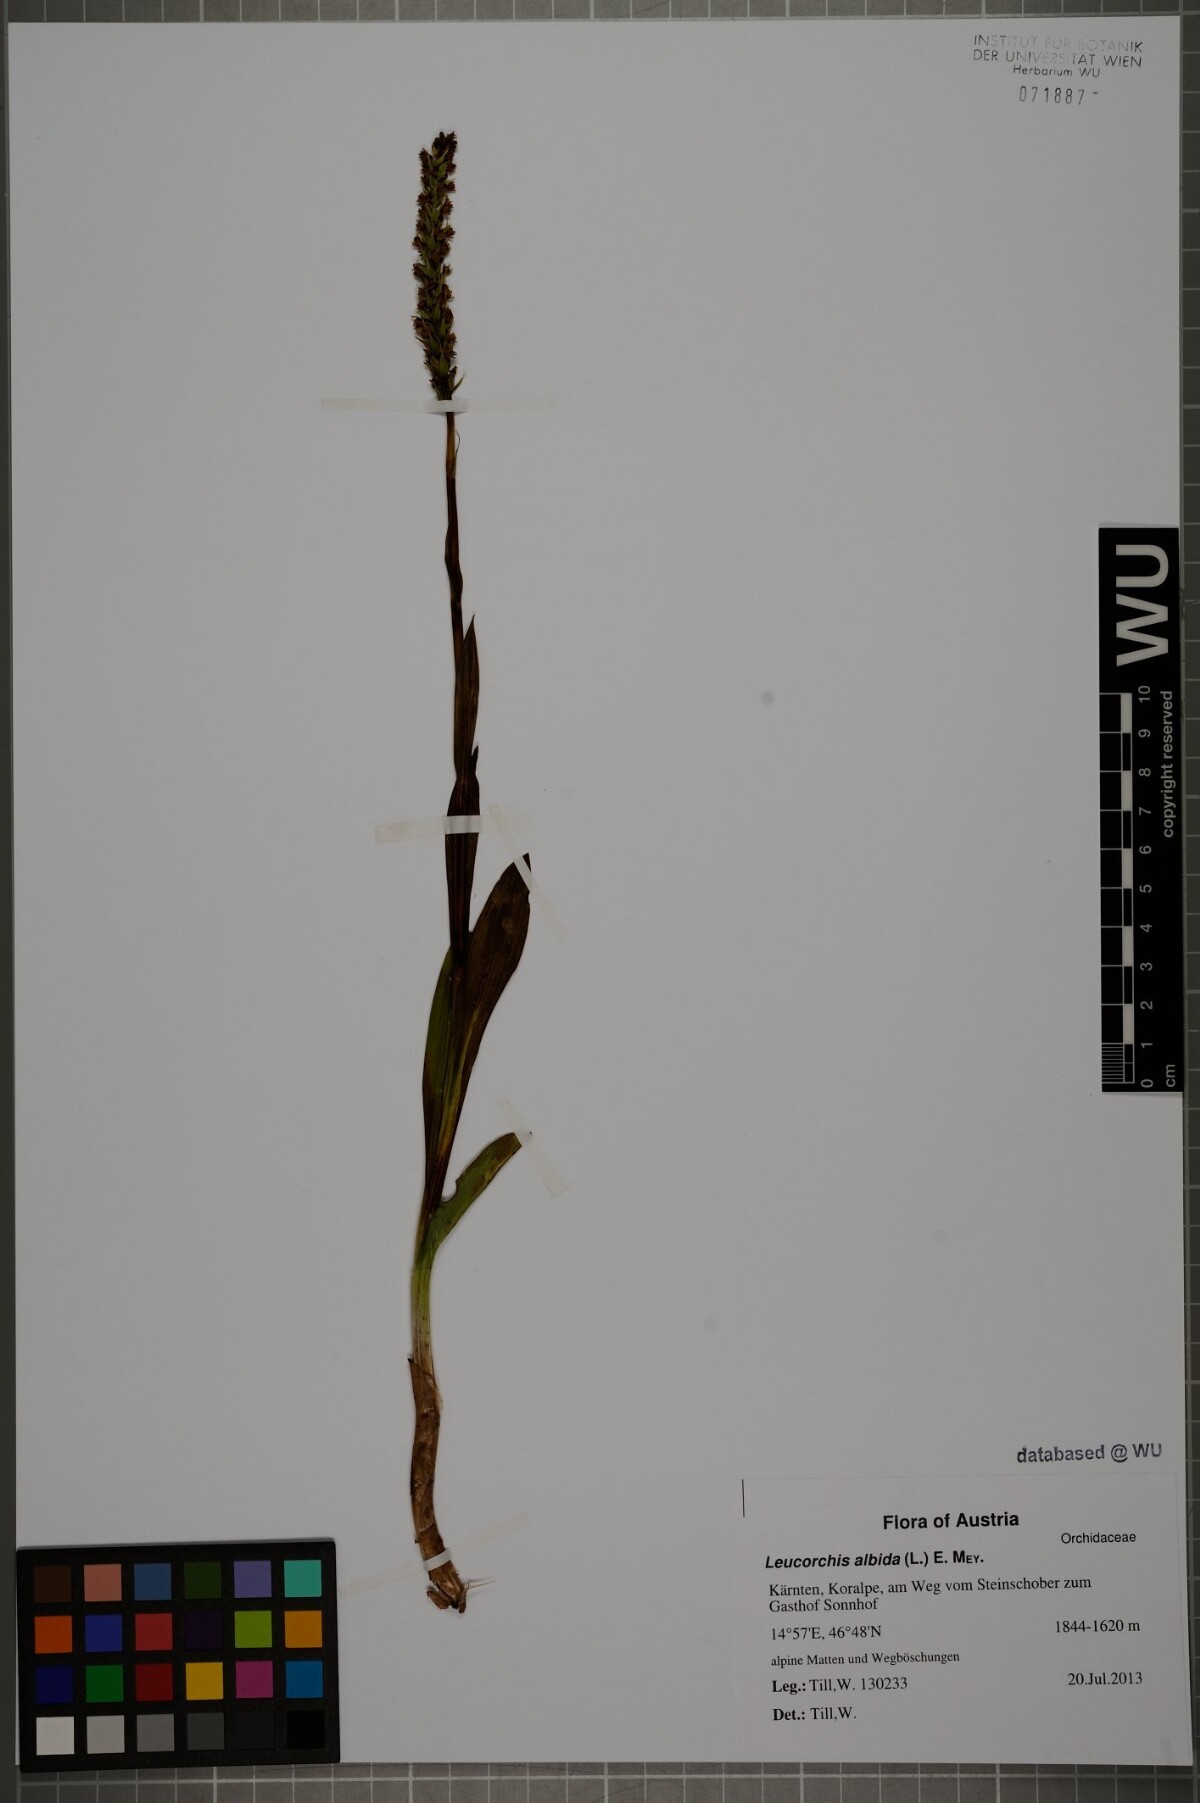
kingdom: Plantae
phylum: Tracheophyta
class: Liliopsida
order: Asparagales
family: Orchidaceae
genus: Pseudorchis
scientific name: Pseudorchis albida
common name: Small-white orchid
